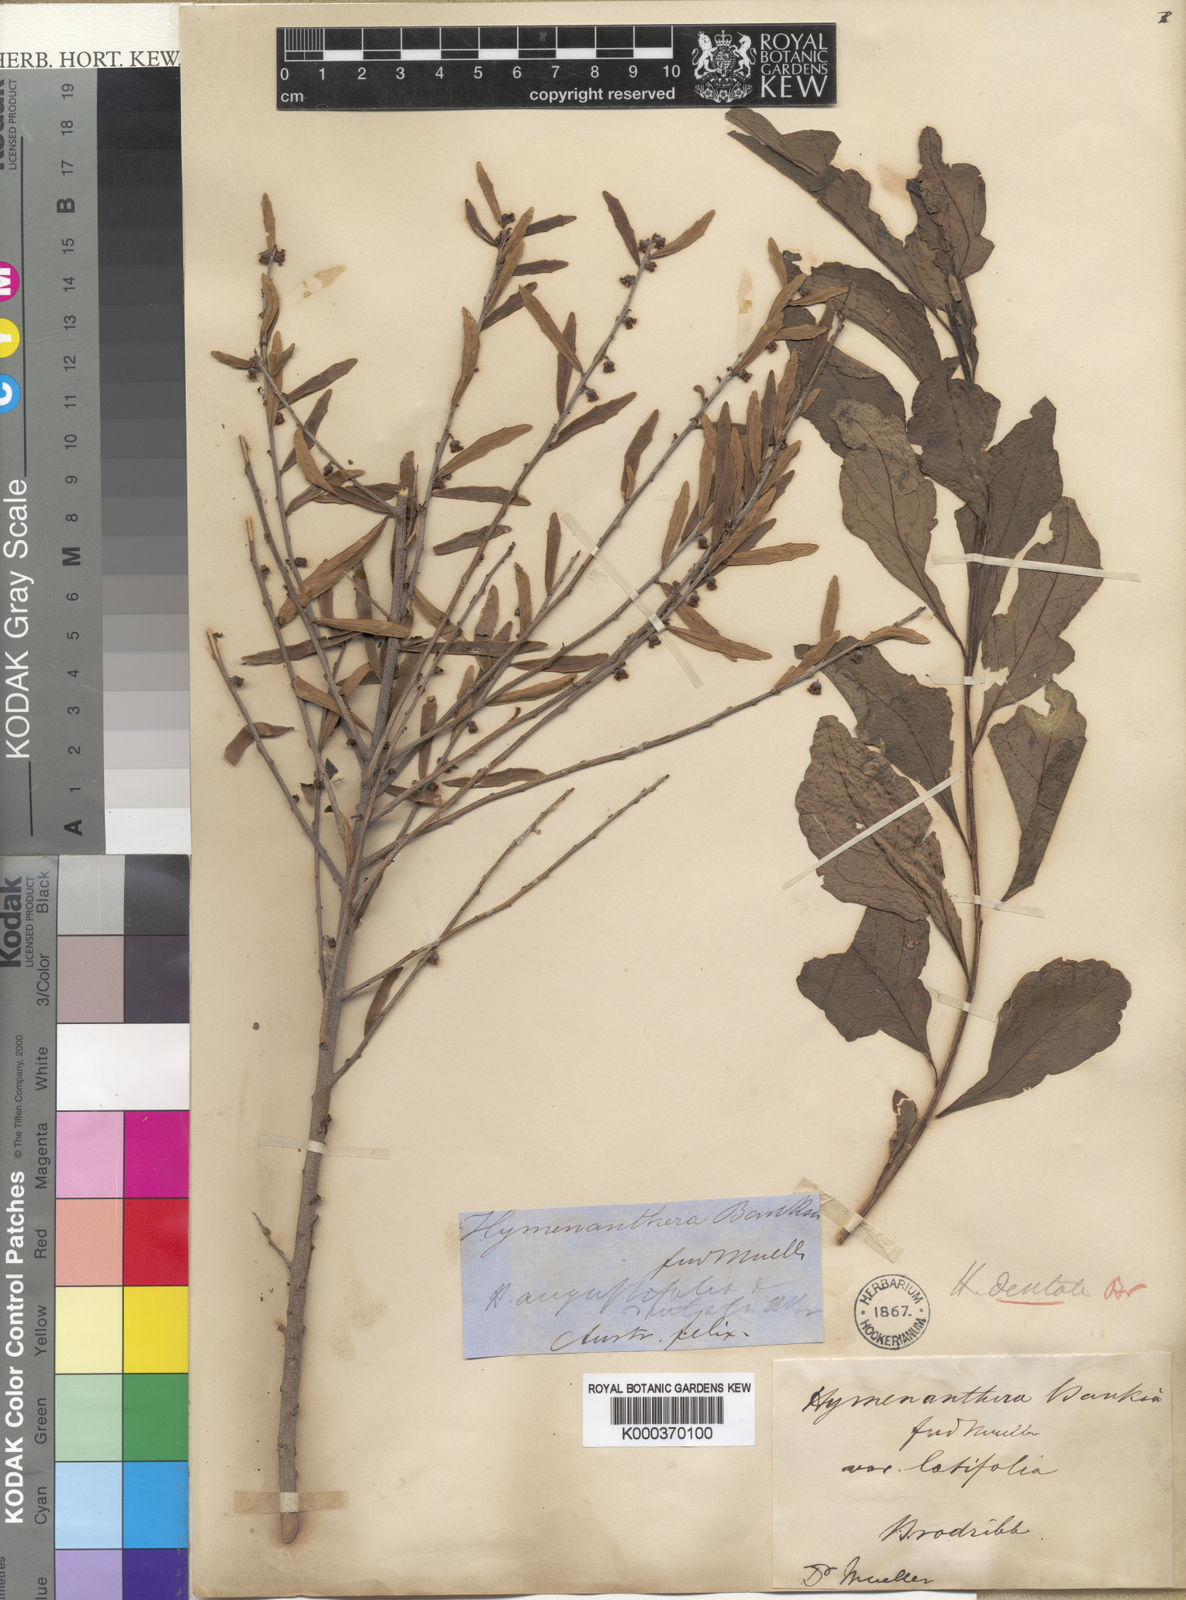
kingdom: Plantae
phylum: Tracheophyta
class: Magnoliopsida
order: Malpighiales
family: Violaceae
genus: Melicytus
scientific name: Melicytus
